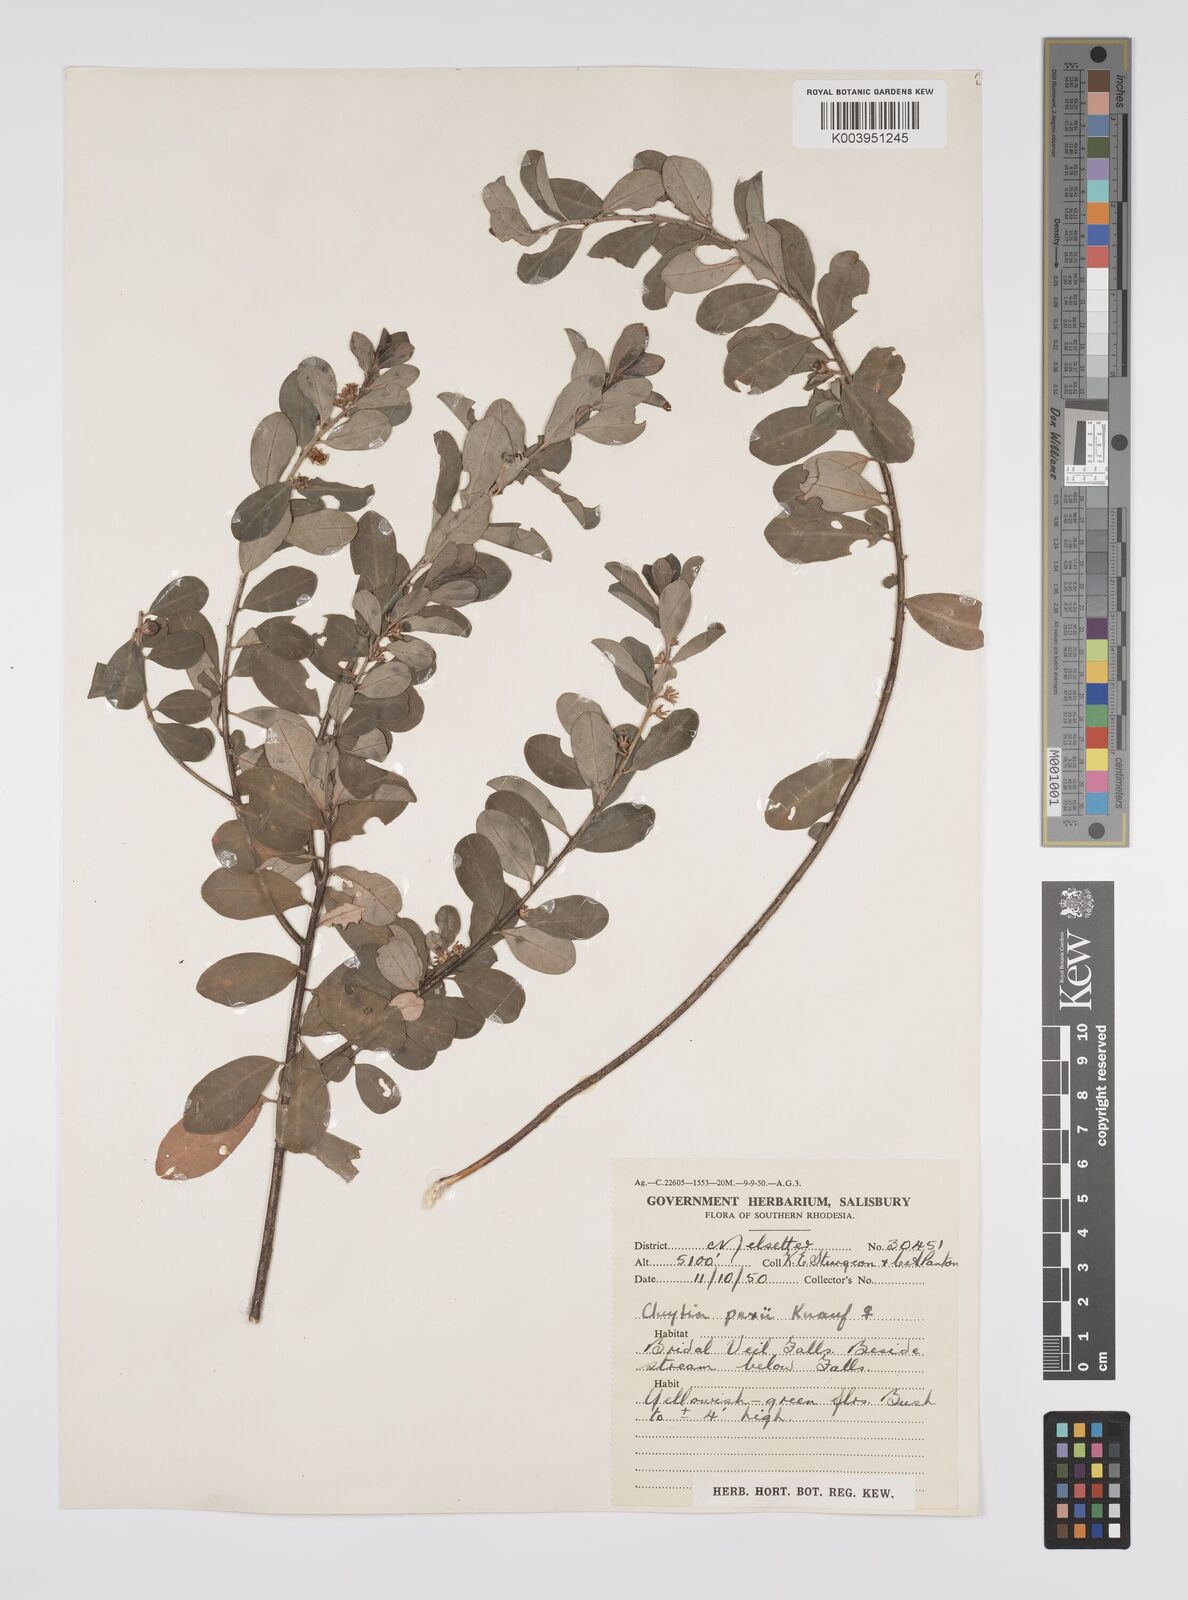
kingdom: Plantae
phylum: Tracheophyta
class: Magnoliopsida
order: Malpighiales
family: Peraceae
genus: Clutia
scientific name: Clutia paxii
